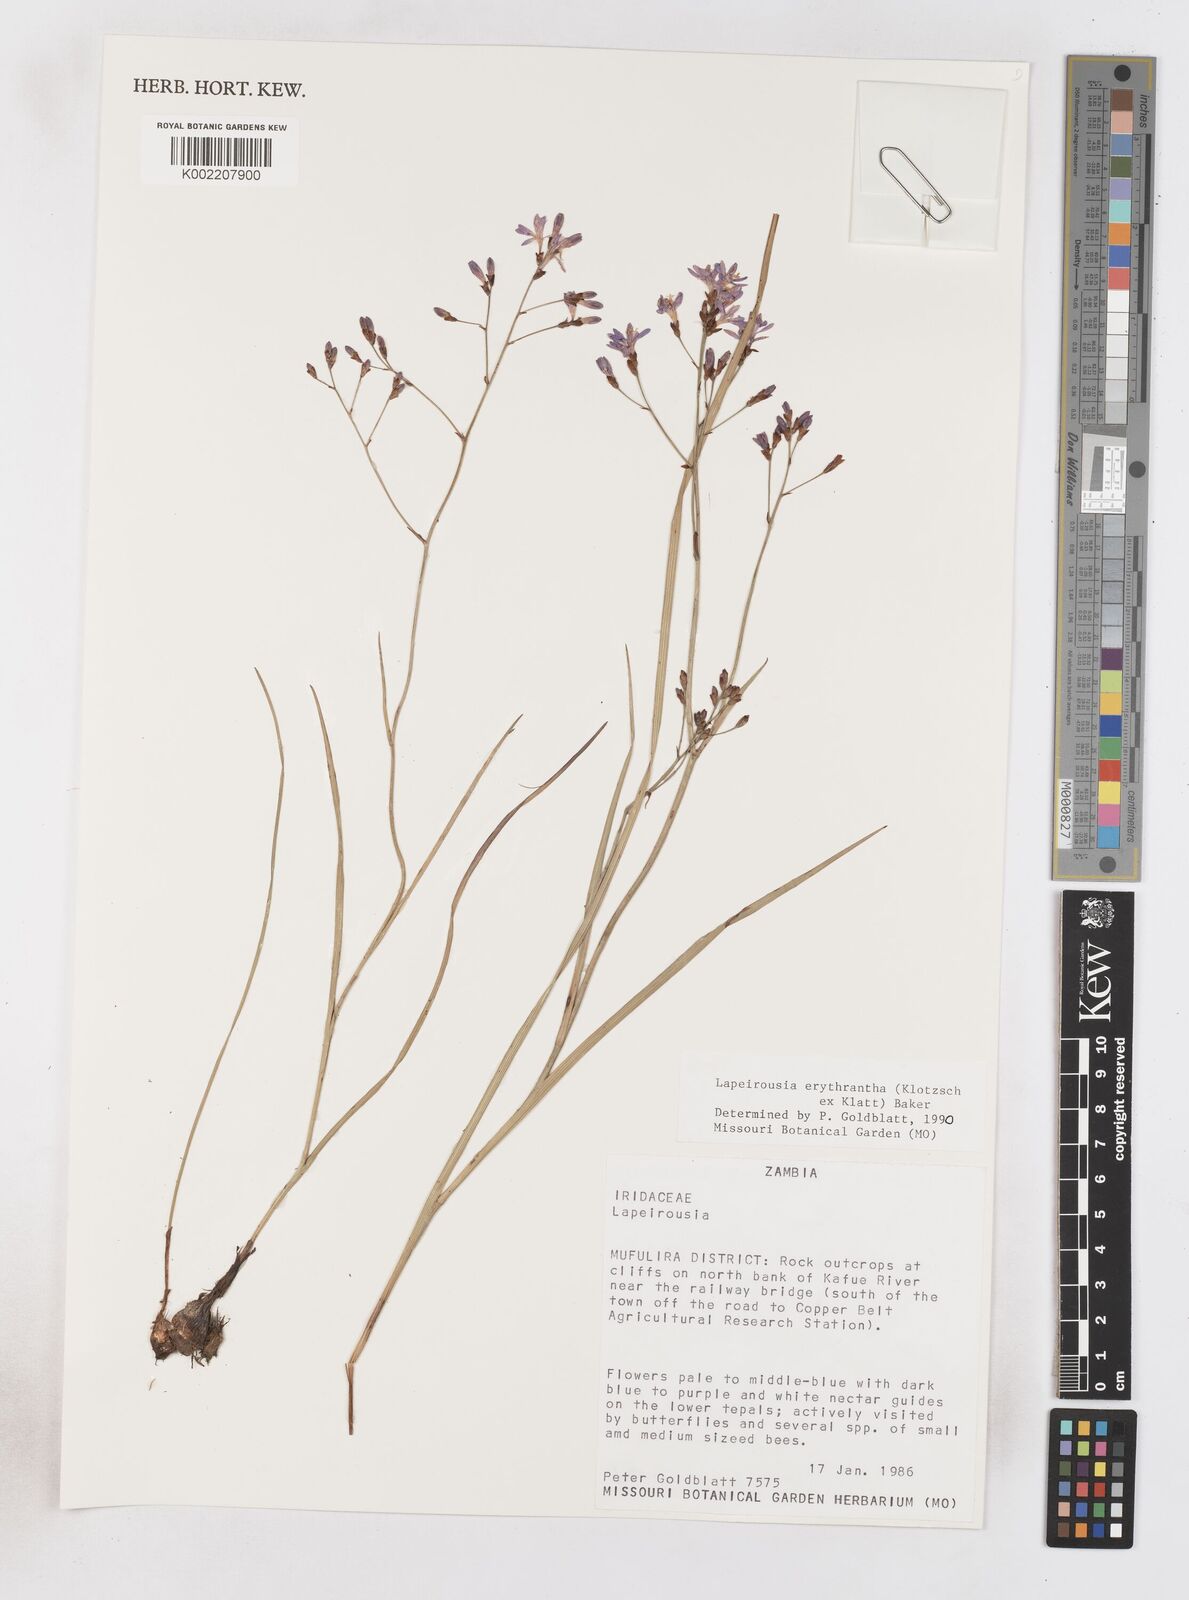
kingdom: Plantae
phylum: Tracheophyta
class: Liliopsida
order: Asparagales
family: Iridaceae
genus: Afrosolen
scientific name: Afrosolen erythranthus
